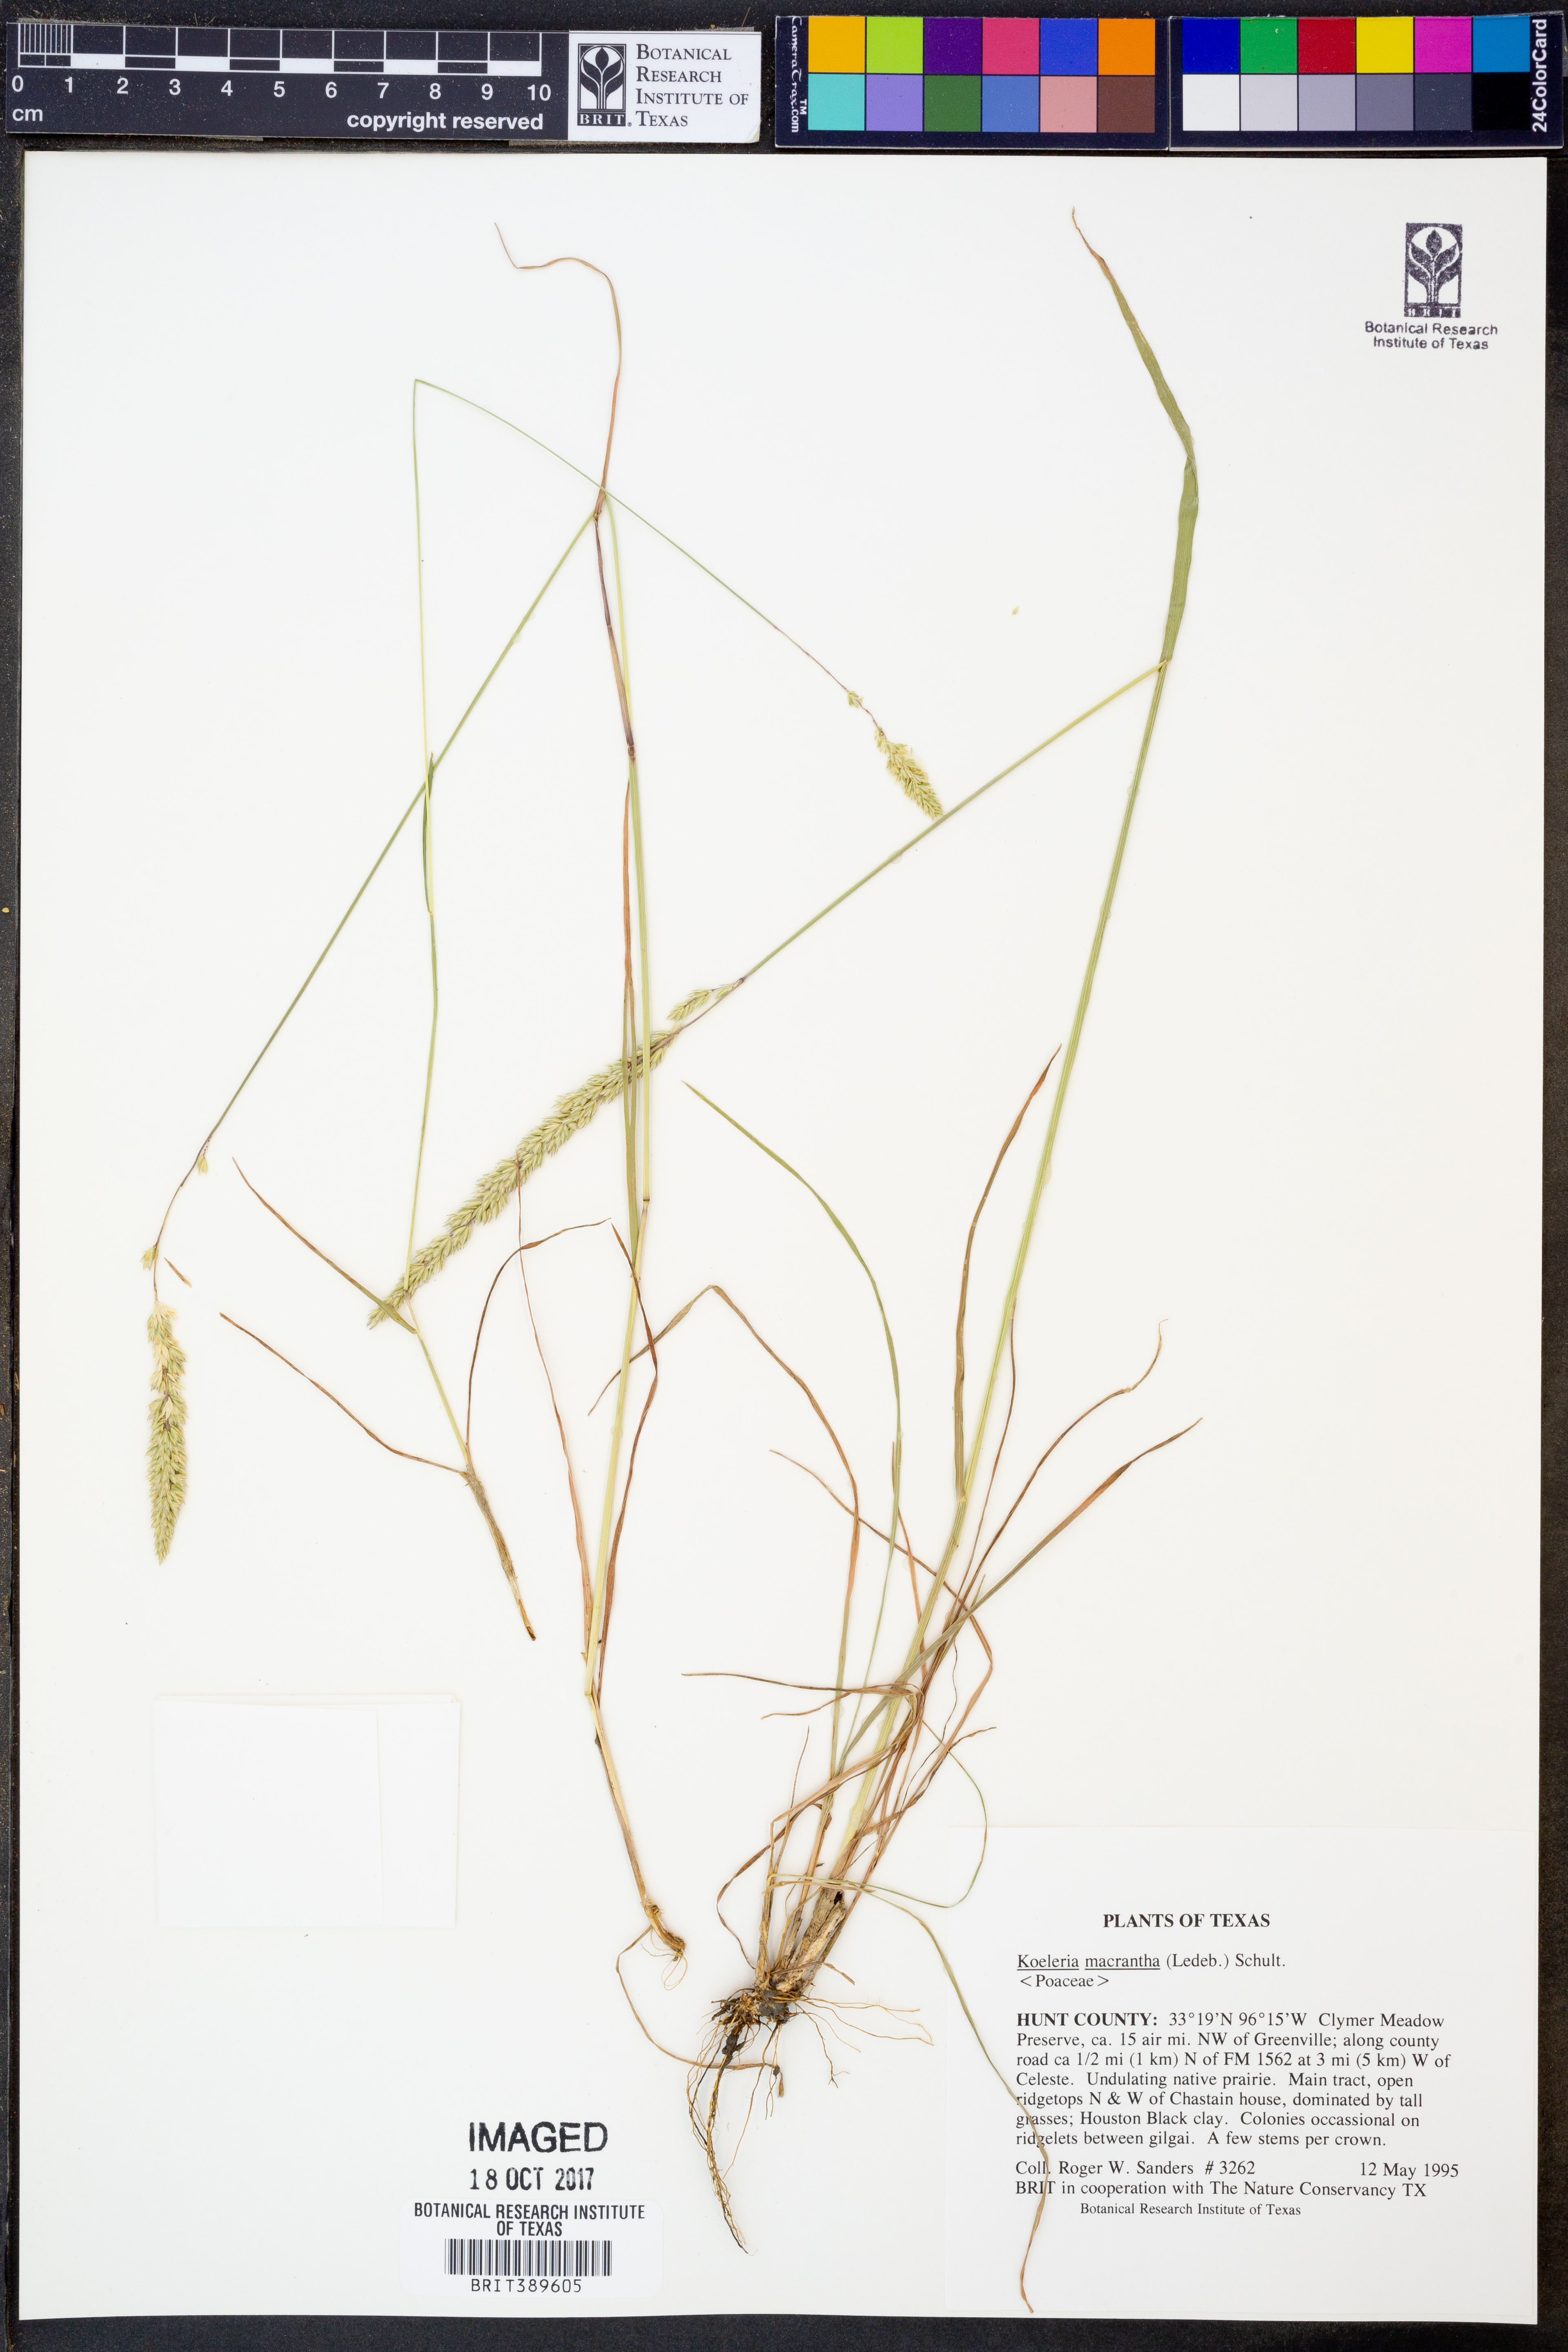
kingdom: Plantae
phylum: Tracheophyta
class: Liliopsida
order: Poales
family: Poaceae
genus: Koeleria
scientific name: Koeleria macrantha
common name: Crested hair-grass
